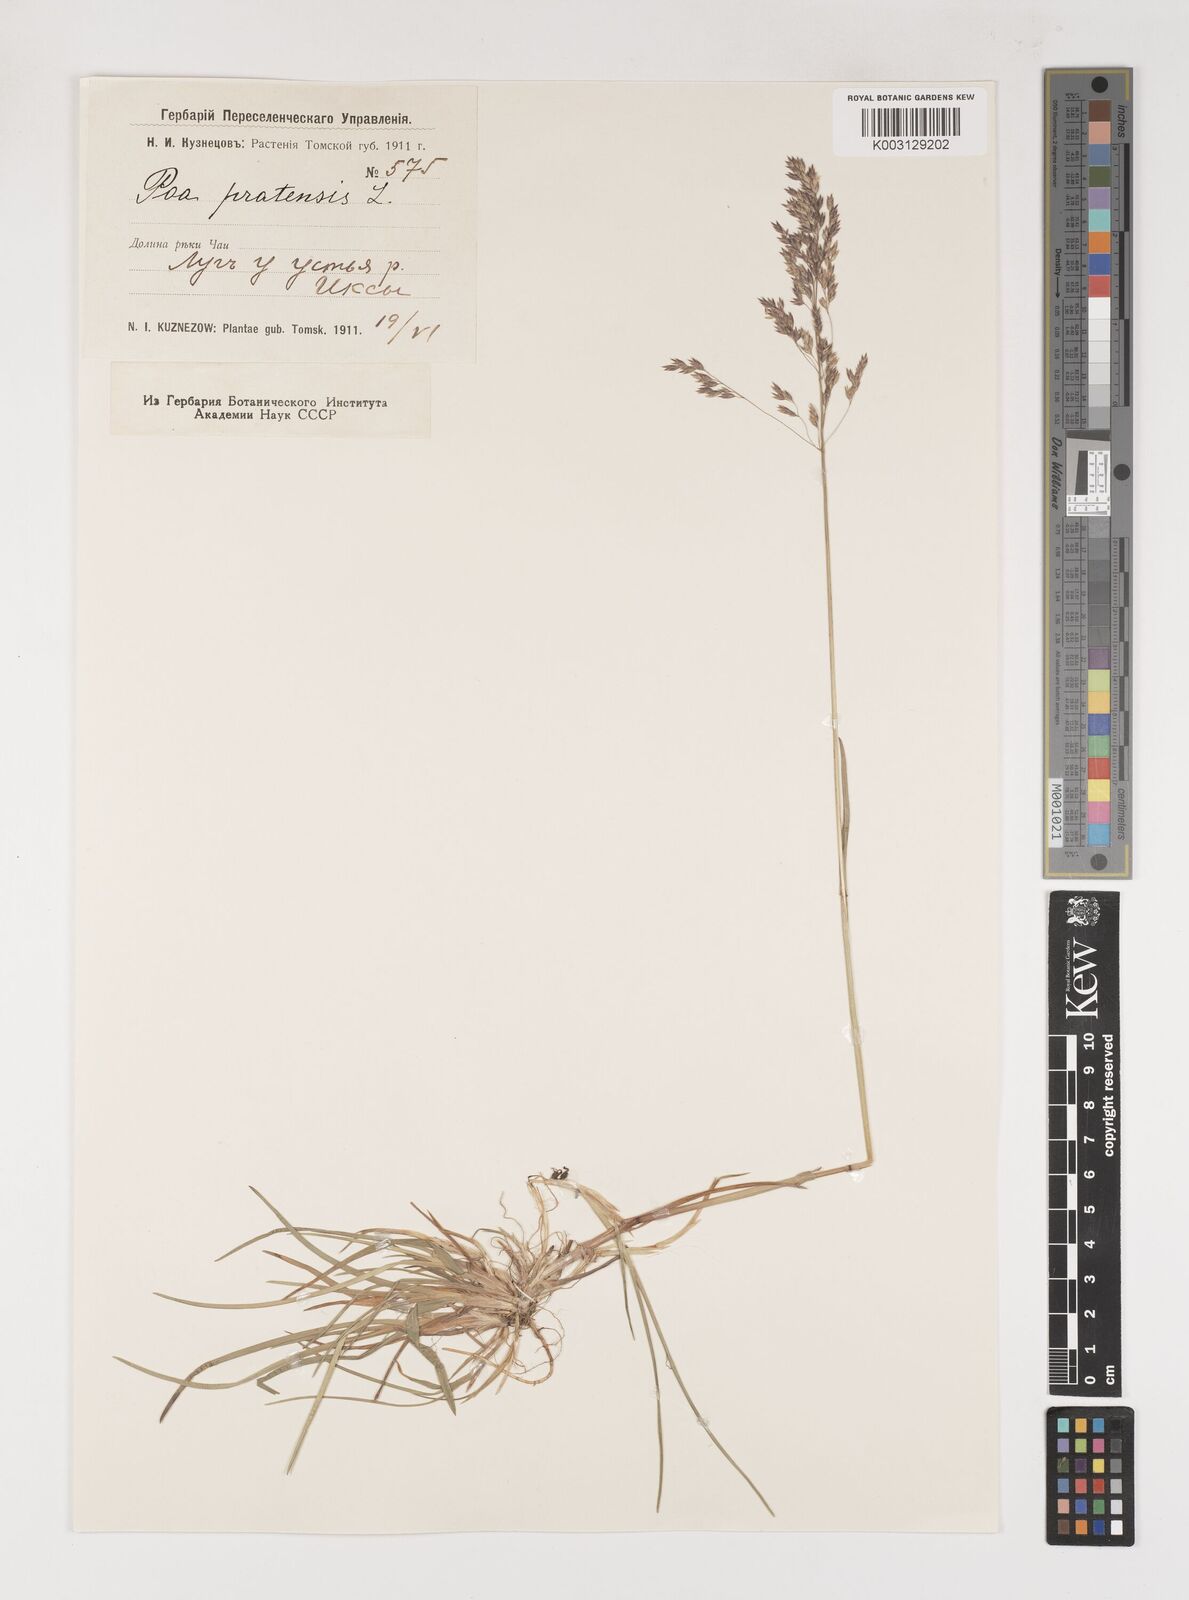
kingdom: Plantae
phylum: Tracheophyta
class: Liliopsida
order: Poales
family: Poaceae
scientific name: Poaceae
